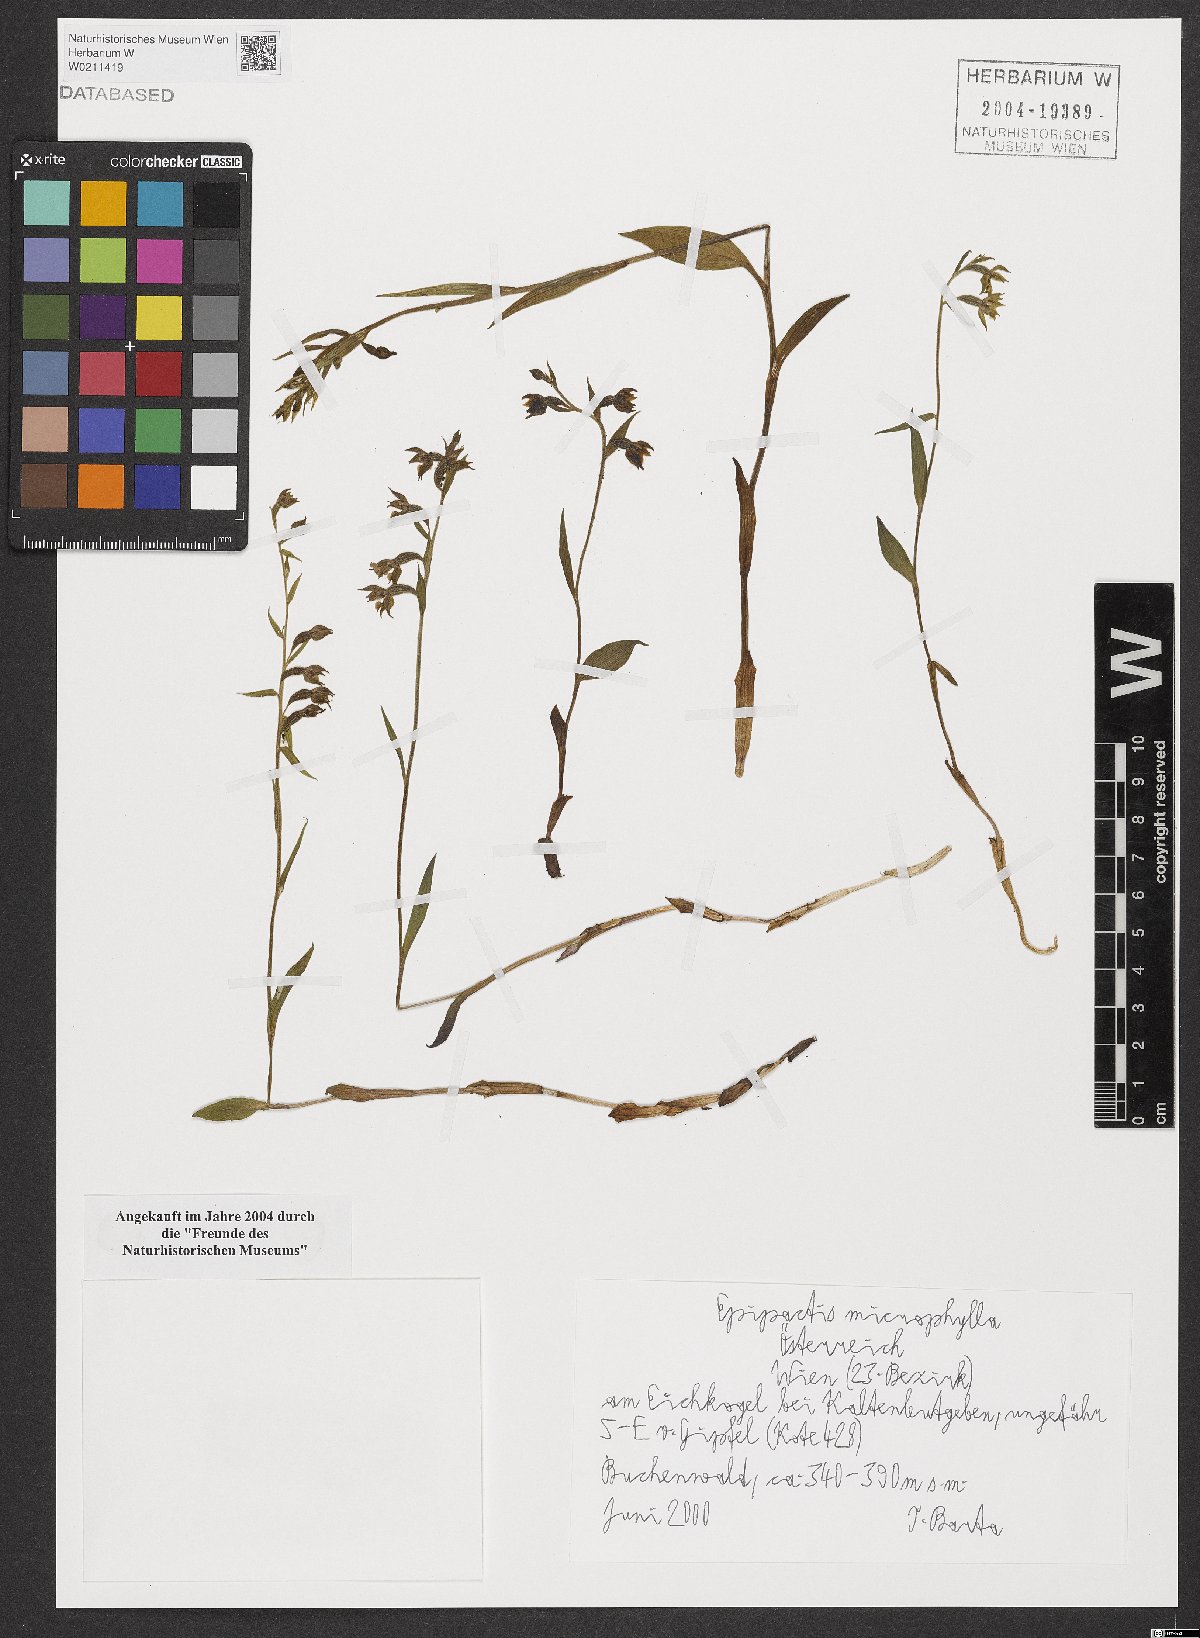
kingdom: Plantae
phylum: Tracheophyta
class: Liliopsida
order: Asparagales
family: Orchidaceae
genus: Epipactis
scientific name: Epipactis microphylla
